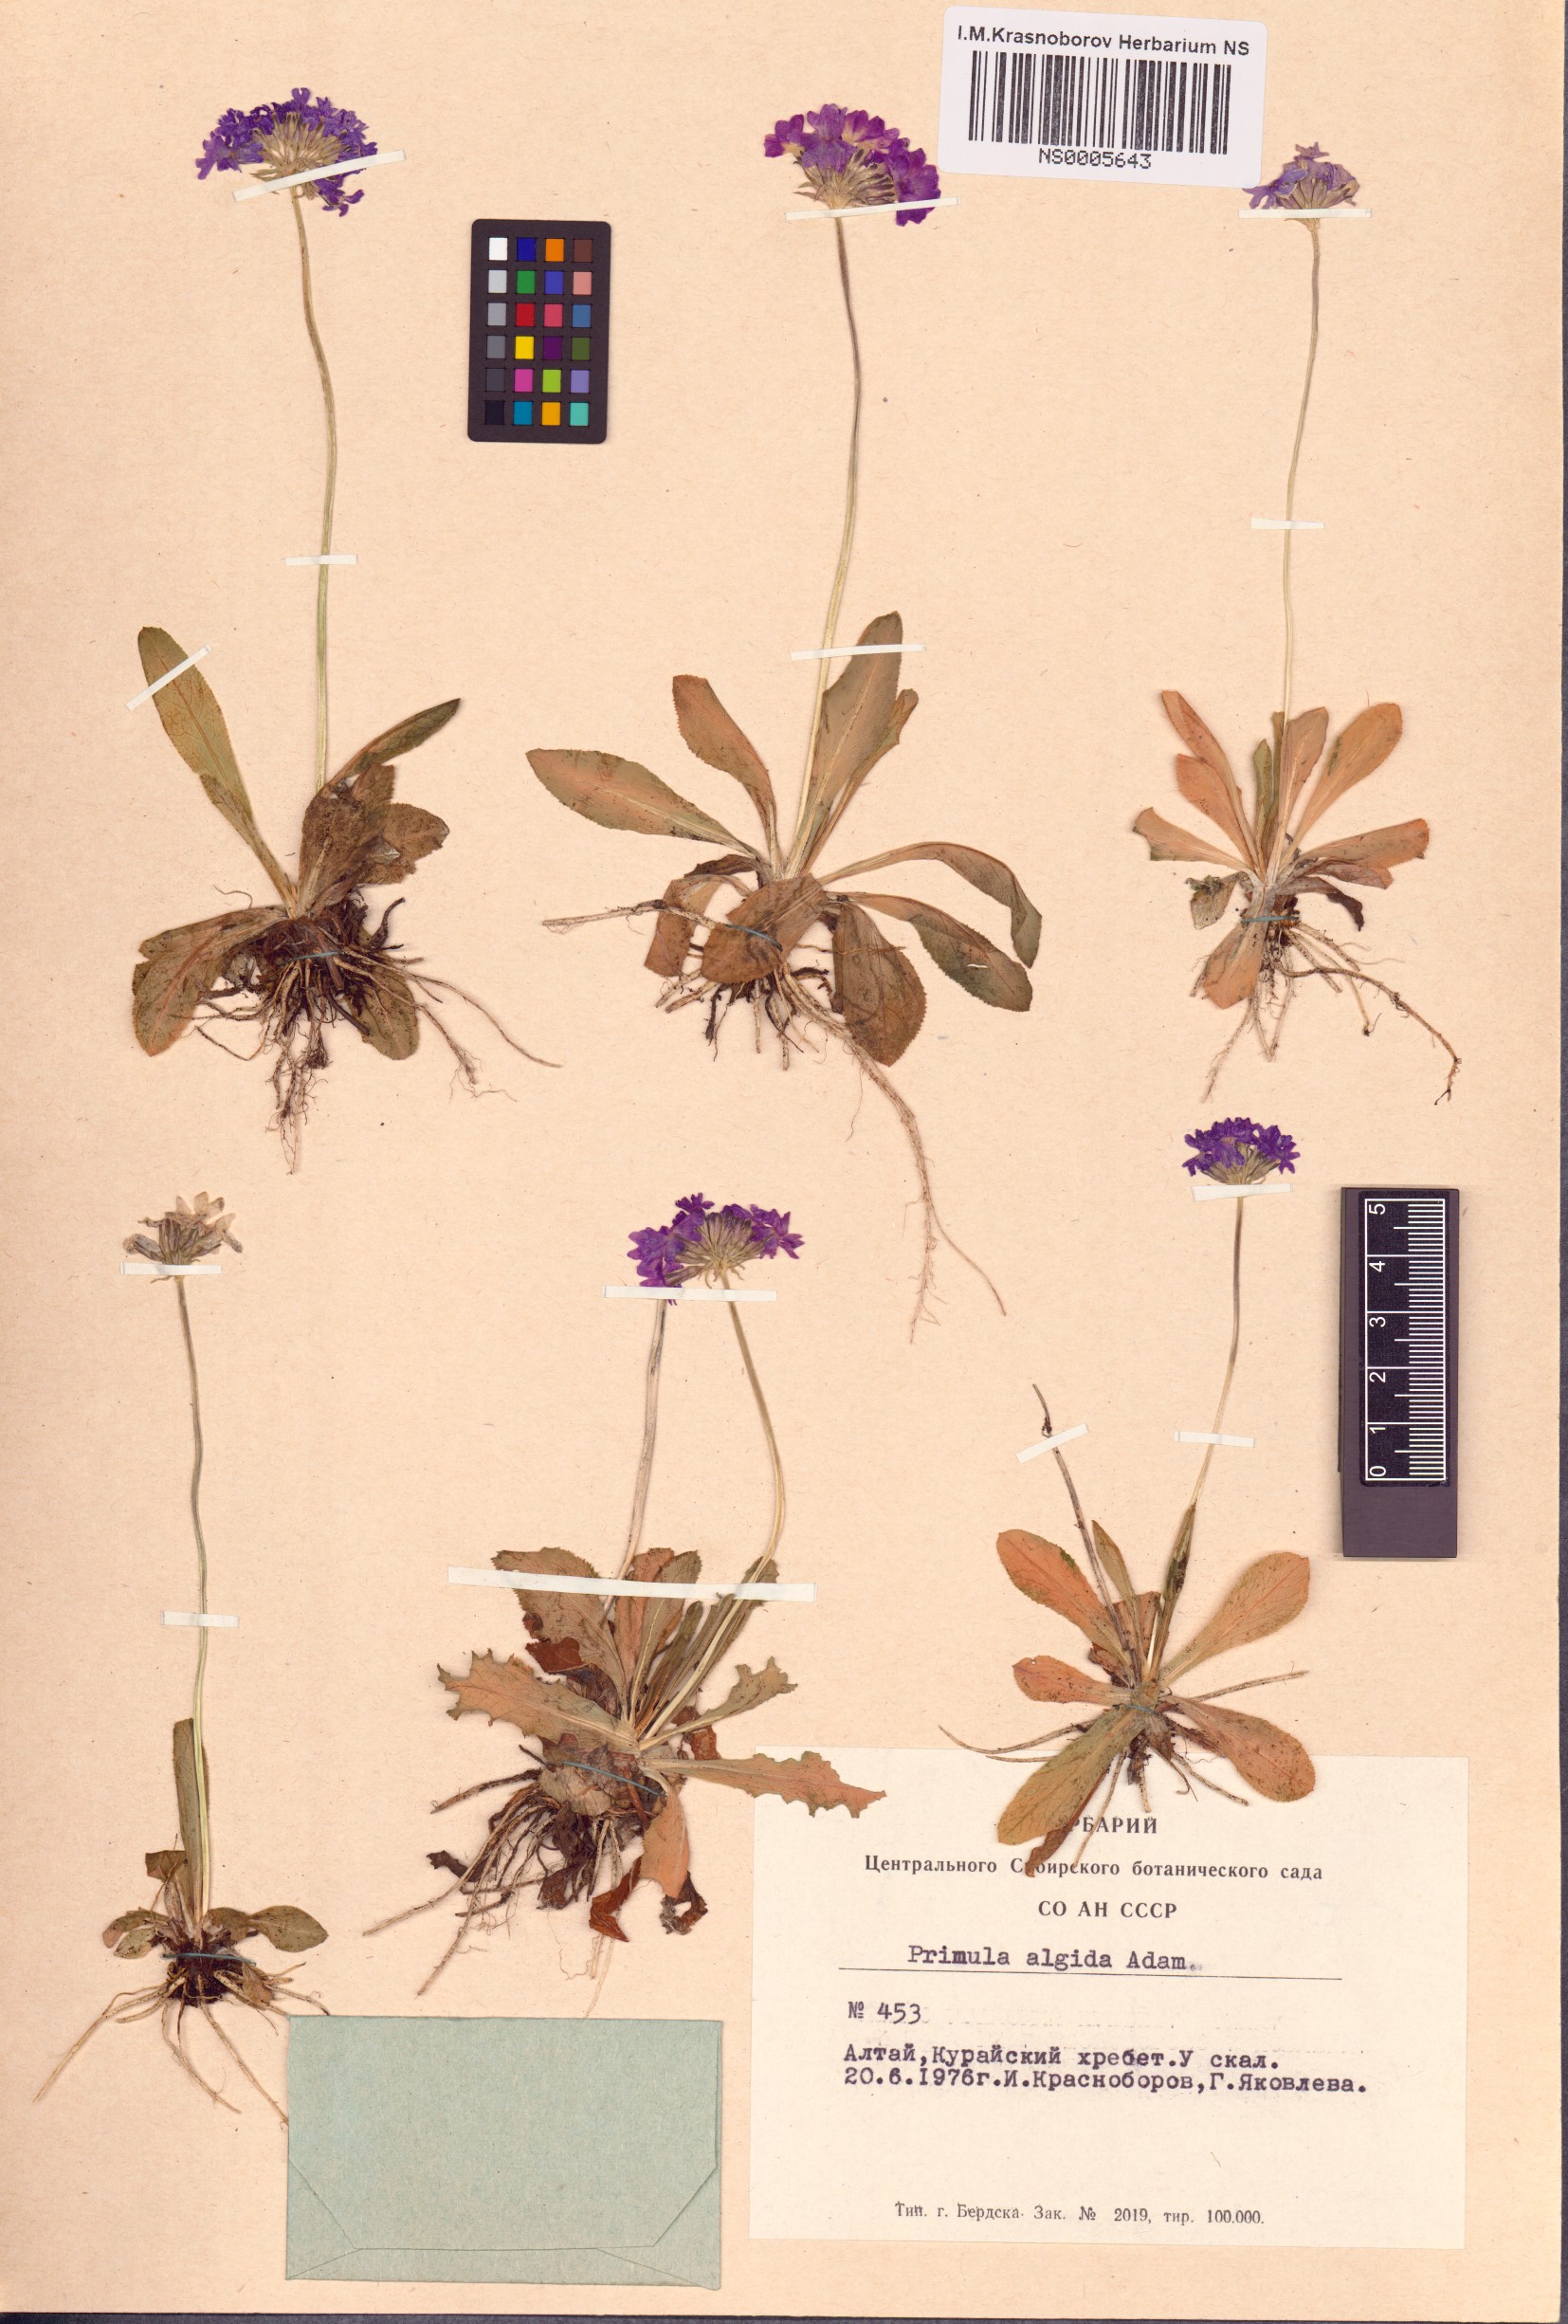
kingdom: Plantae
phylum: Tracheophyta
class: Magnoliopsida
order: Ericales
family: Primulaceae
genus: Primula
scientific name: Primula algida
